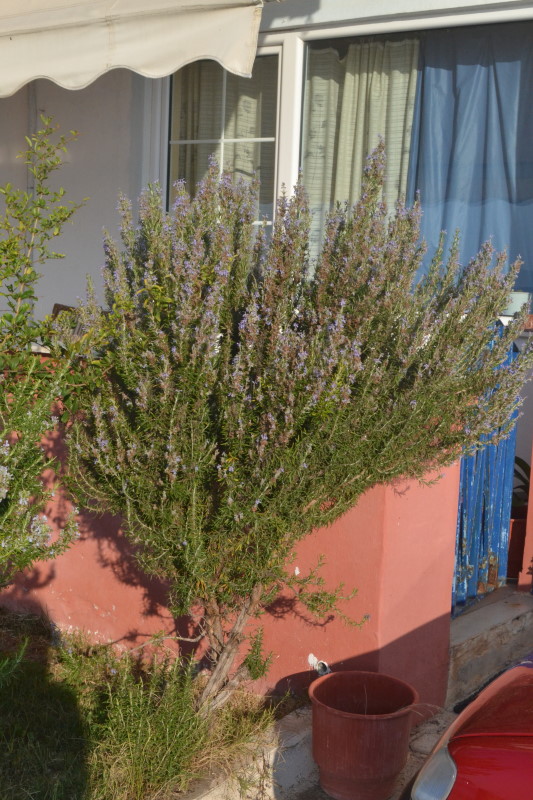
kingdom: Plantae
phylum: Tracheophyta
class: Magnoliopsida
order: Lamiales
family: Lamiaceae
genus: Salvia
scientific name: Salvia rosmarinus
